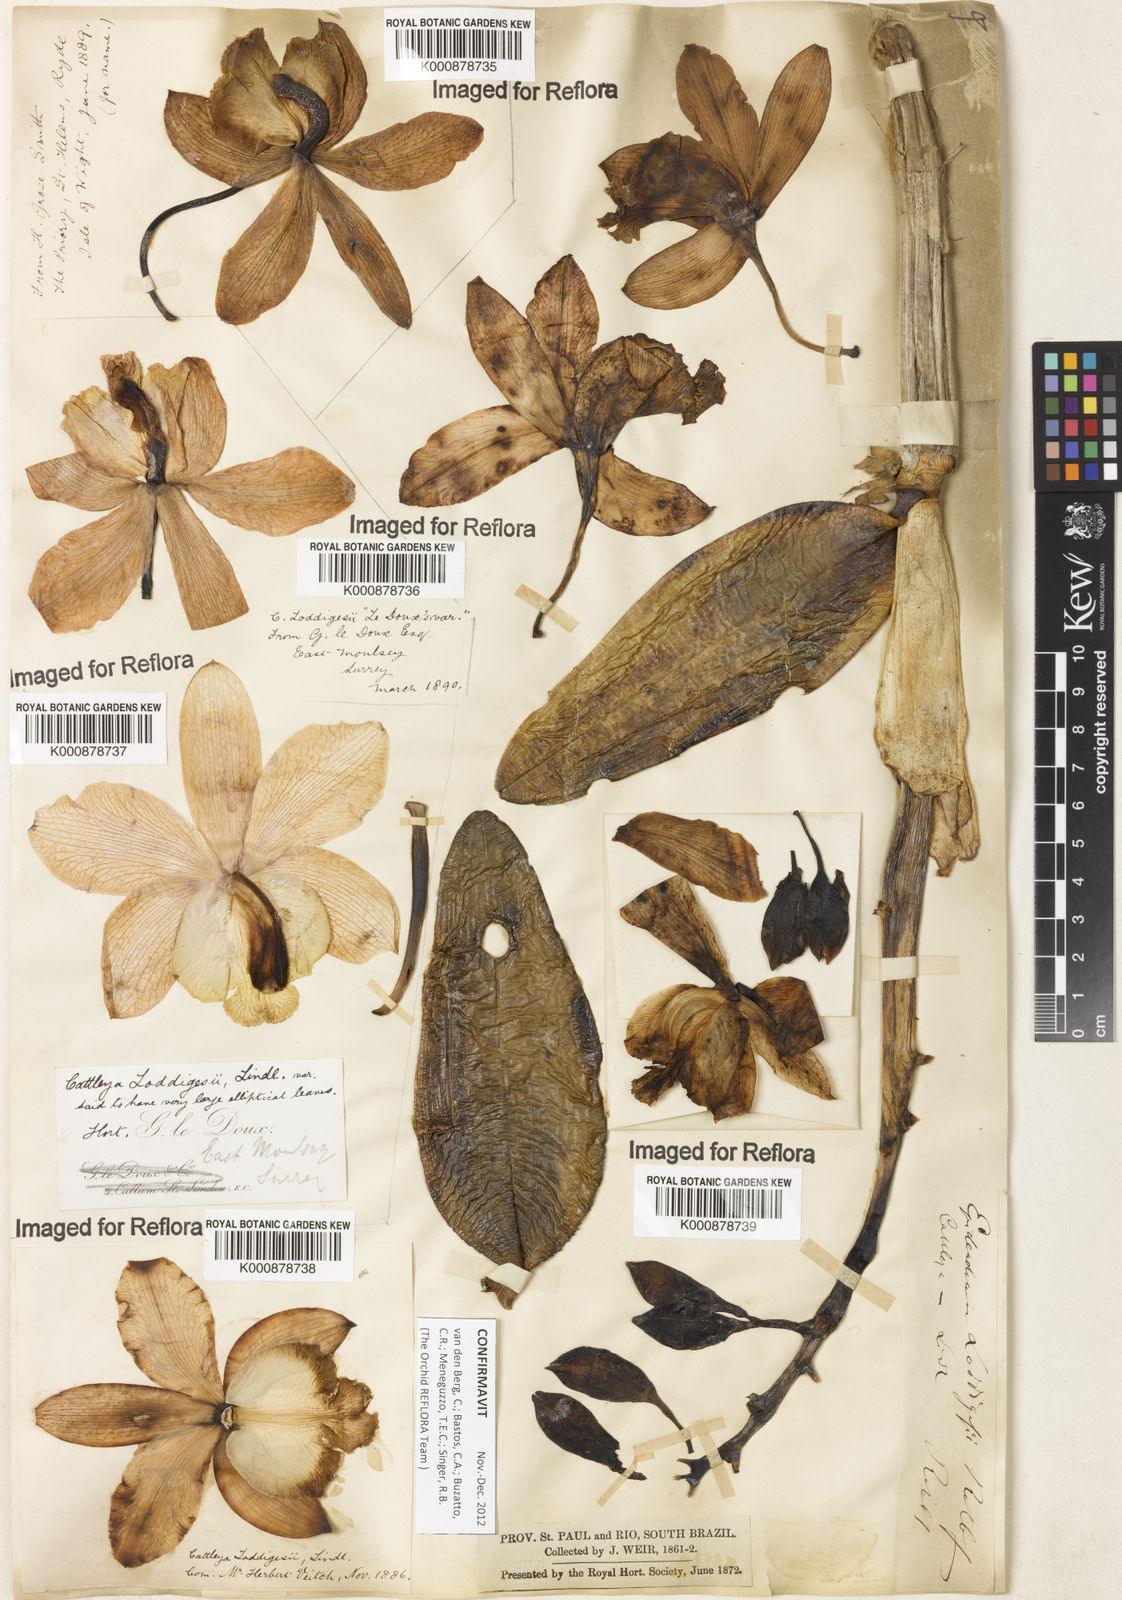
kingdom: Plantae
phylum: Tracheophyta
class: Liliopsida
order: Asparagales
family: Orchidaceae
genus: Cattleya
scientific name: Cattleya loddigesii
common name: Loddiges's cattleya
